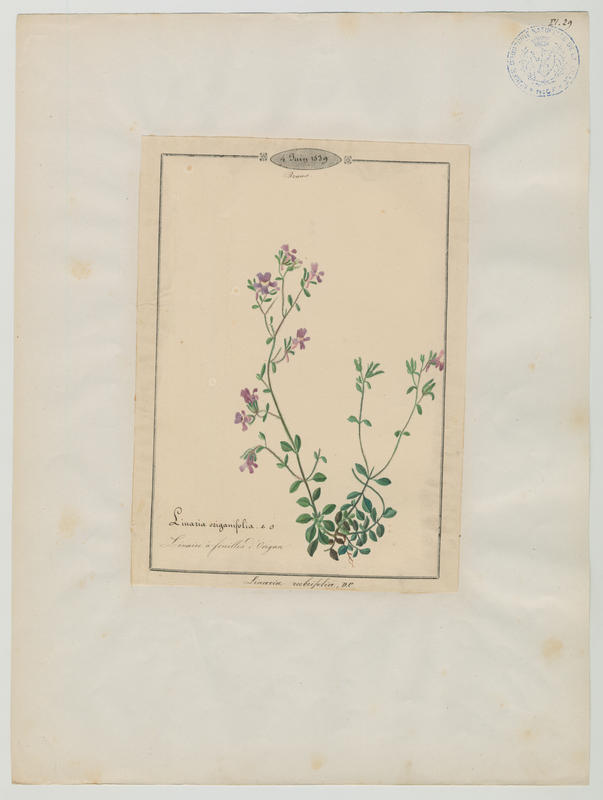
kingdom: Plantae
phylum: Tracheophyta
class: Magnoliopsida
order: Lamiales
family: Scrophulariaceae
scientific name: Scrophulariaceae
